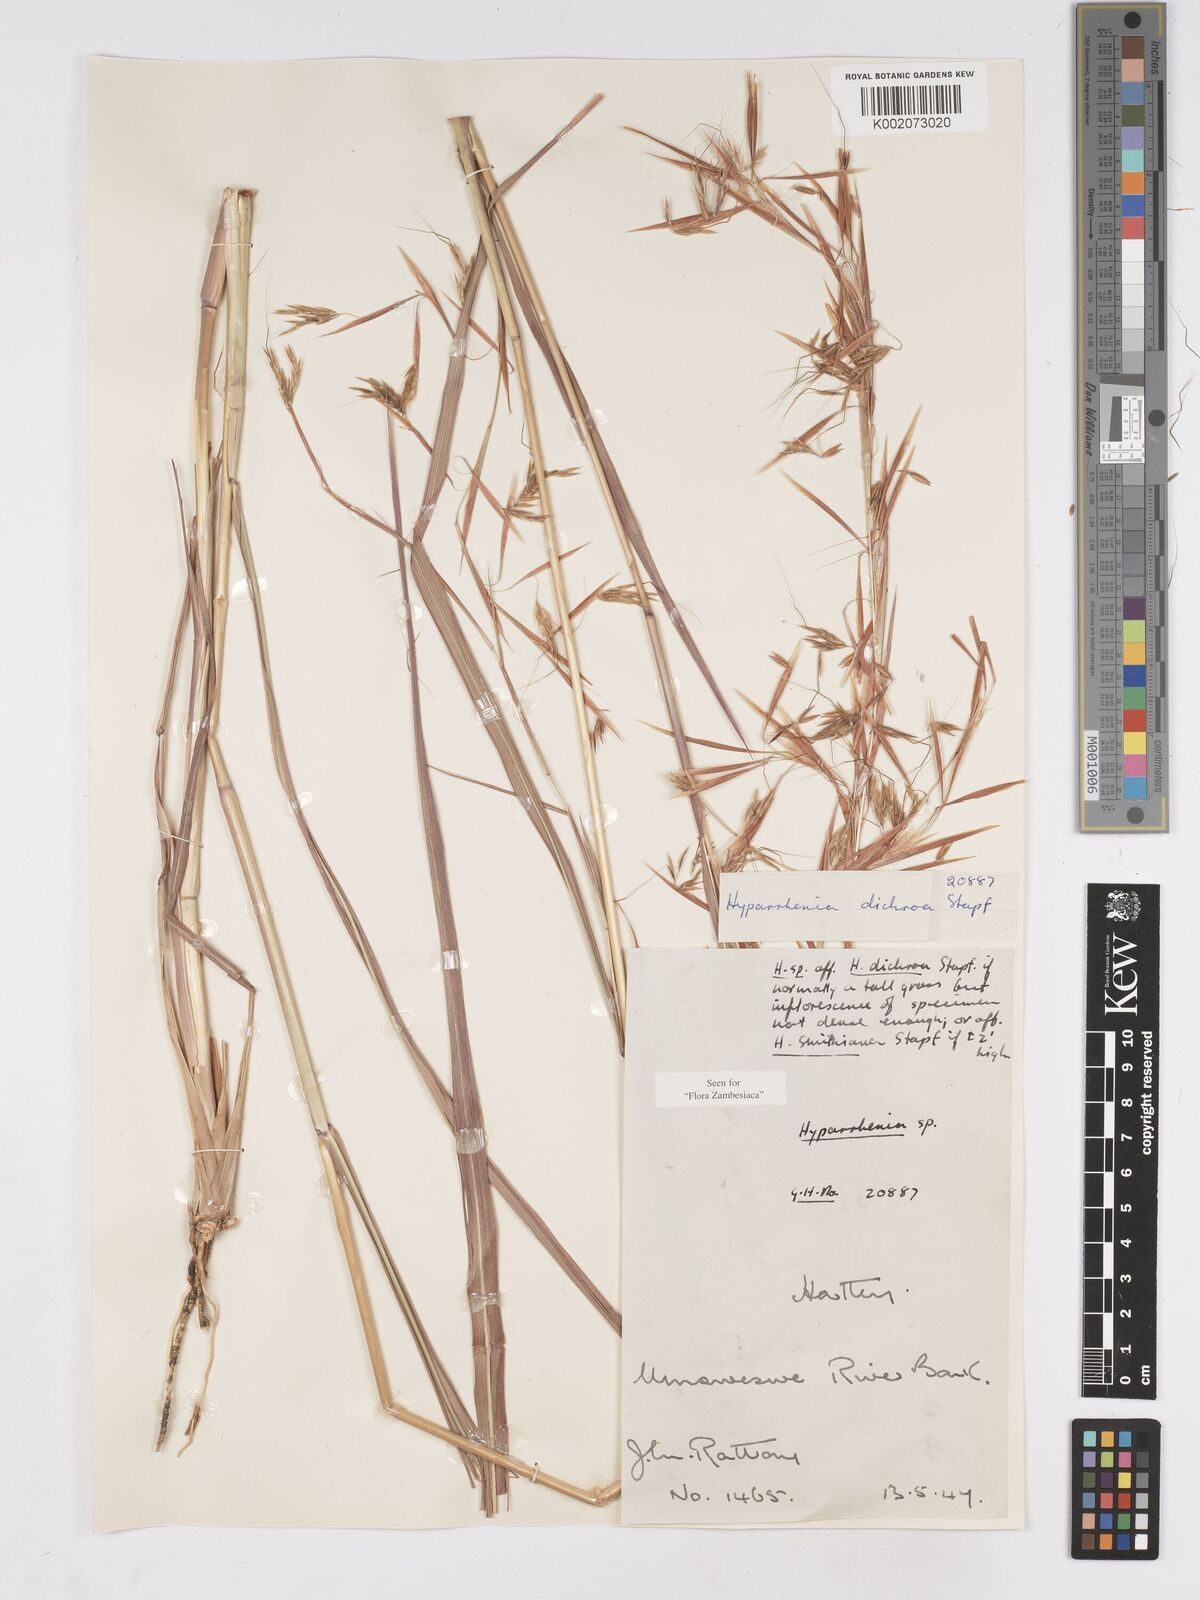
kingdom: Plantae
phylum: Tracheophyta
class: Liliopsida
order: Poales
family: Poaceae
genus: Hyparrhenia
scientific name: Hyparrhenia dichroa
